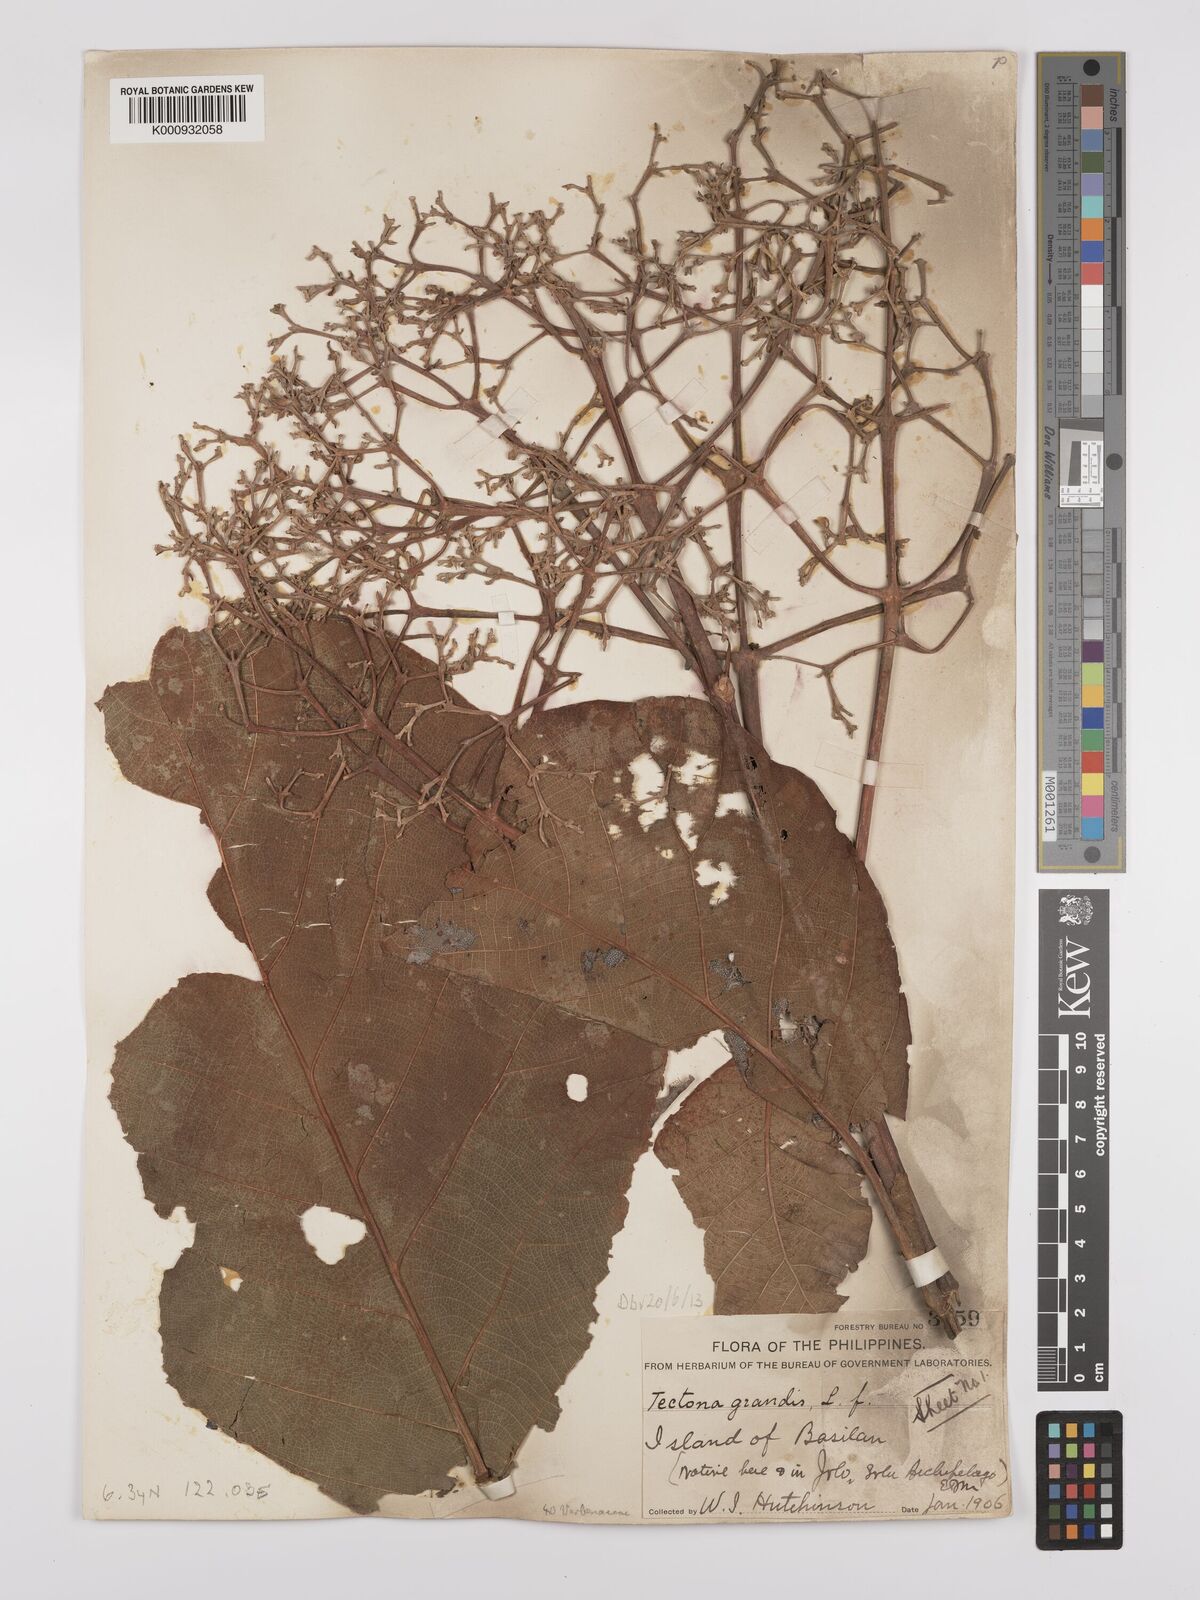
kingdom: Plantae
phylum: Tracheophyta
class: Magnoliopsida
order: Lamiales
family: Lamiaceae
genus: Tectona
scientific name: Tectona grandis
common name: Teak
